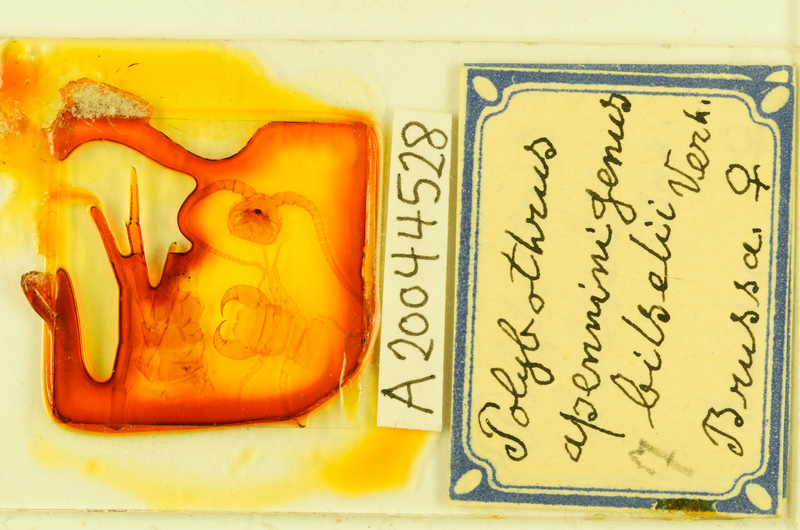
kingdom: Animalia
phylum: Arthropoda
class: Chilopoda
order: Lithobiomorpha
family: Lithobiidae
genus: Polybothrus
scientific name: Polybothrus
